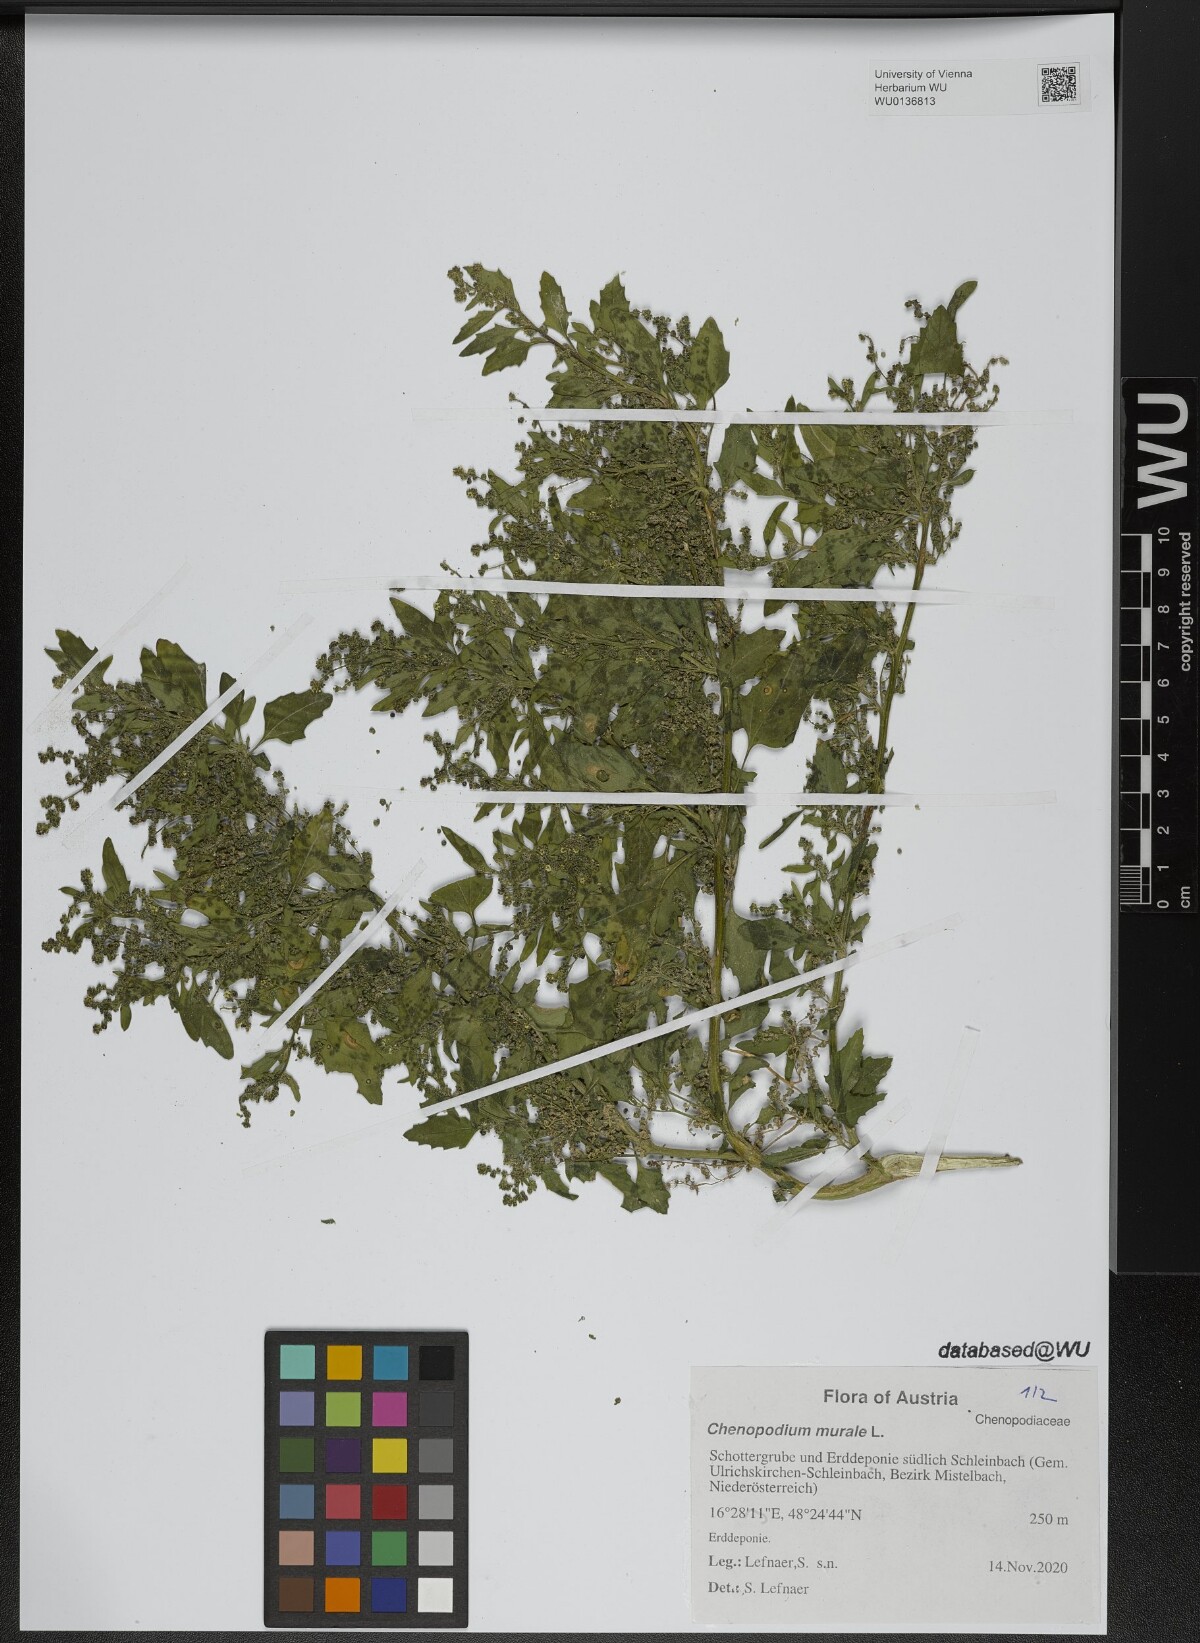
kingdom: Plantae
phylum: Tracheophyta
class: Magnoliopsida
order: Caryophyllales
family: Amaranthaceae
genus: Chenopodiastrum
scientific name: Chenopodiastrum murale
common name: Sowbane
